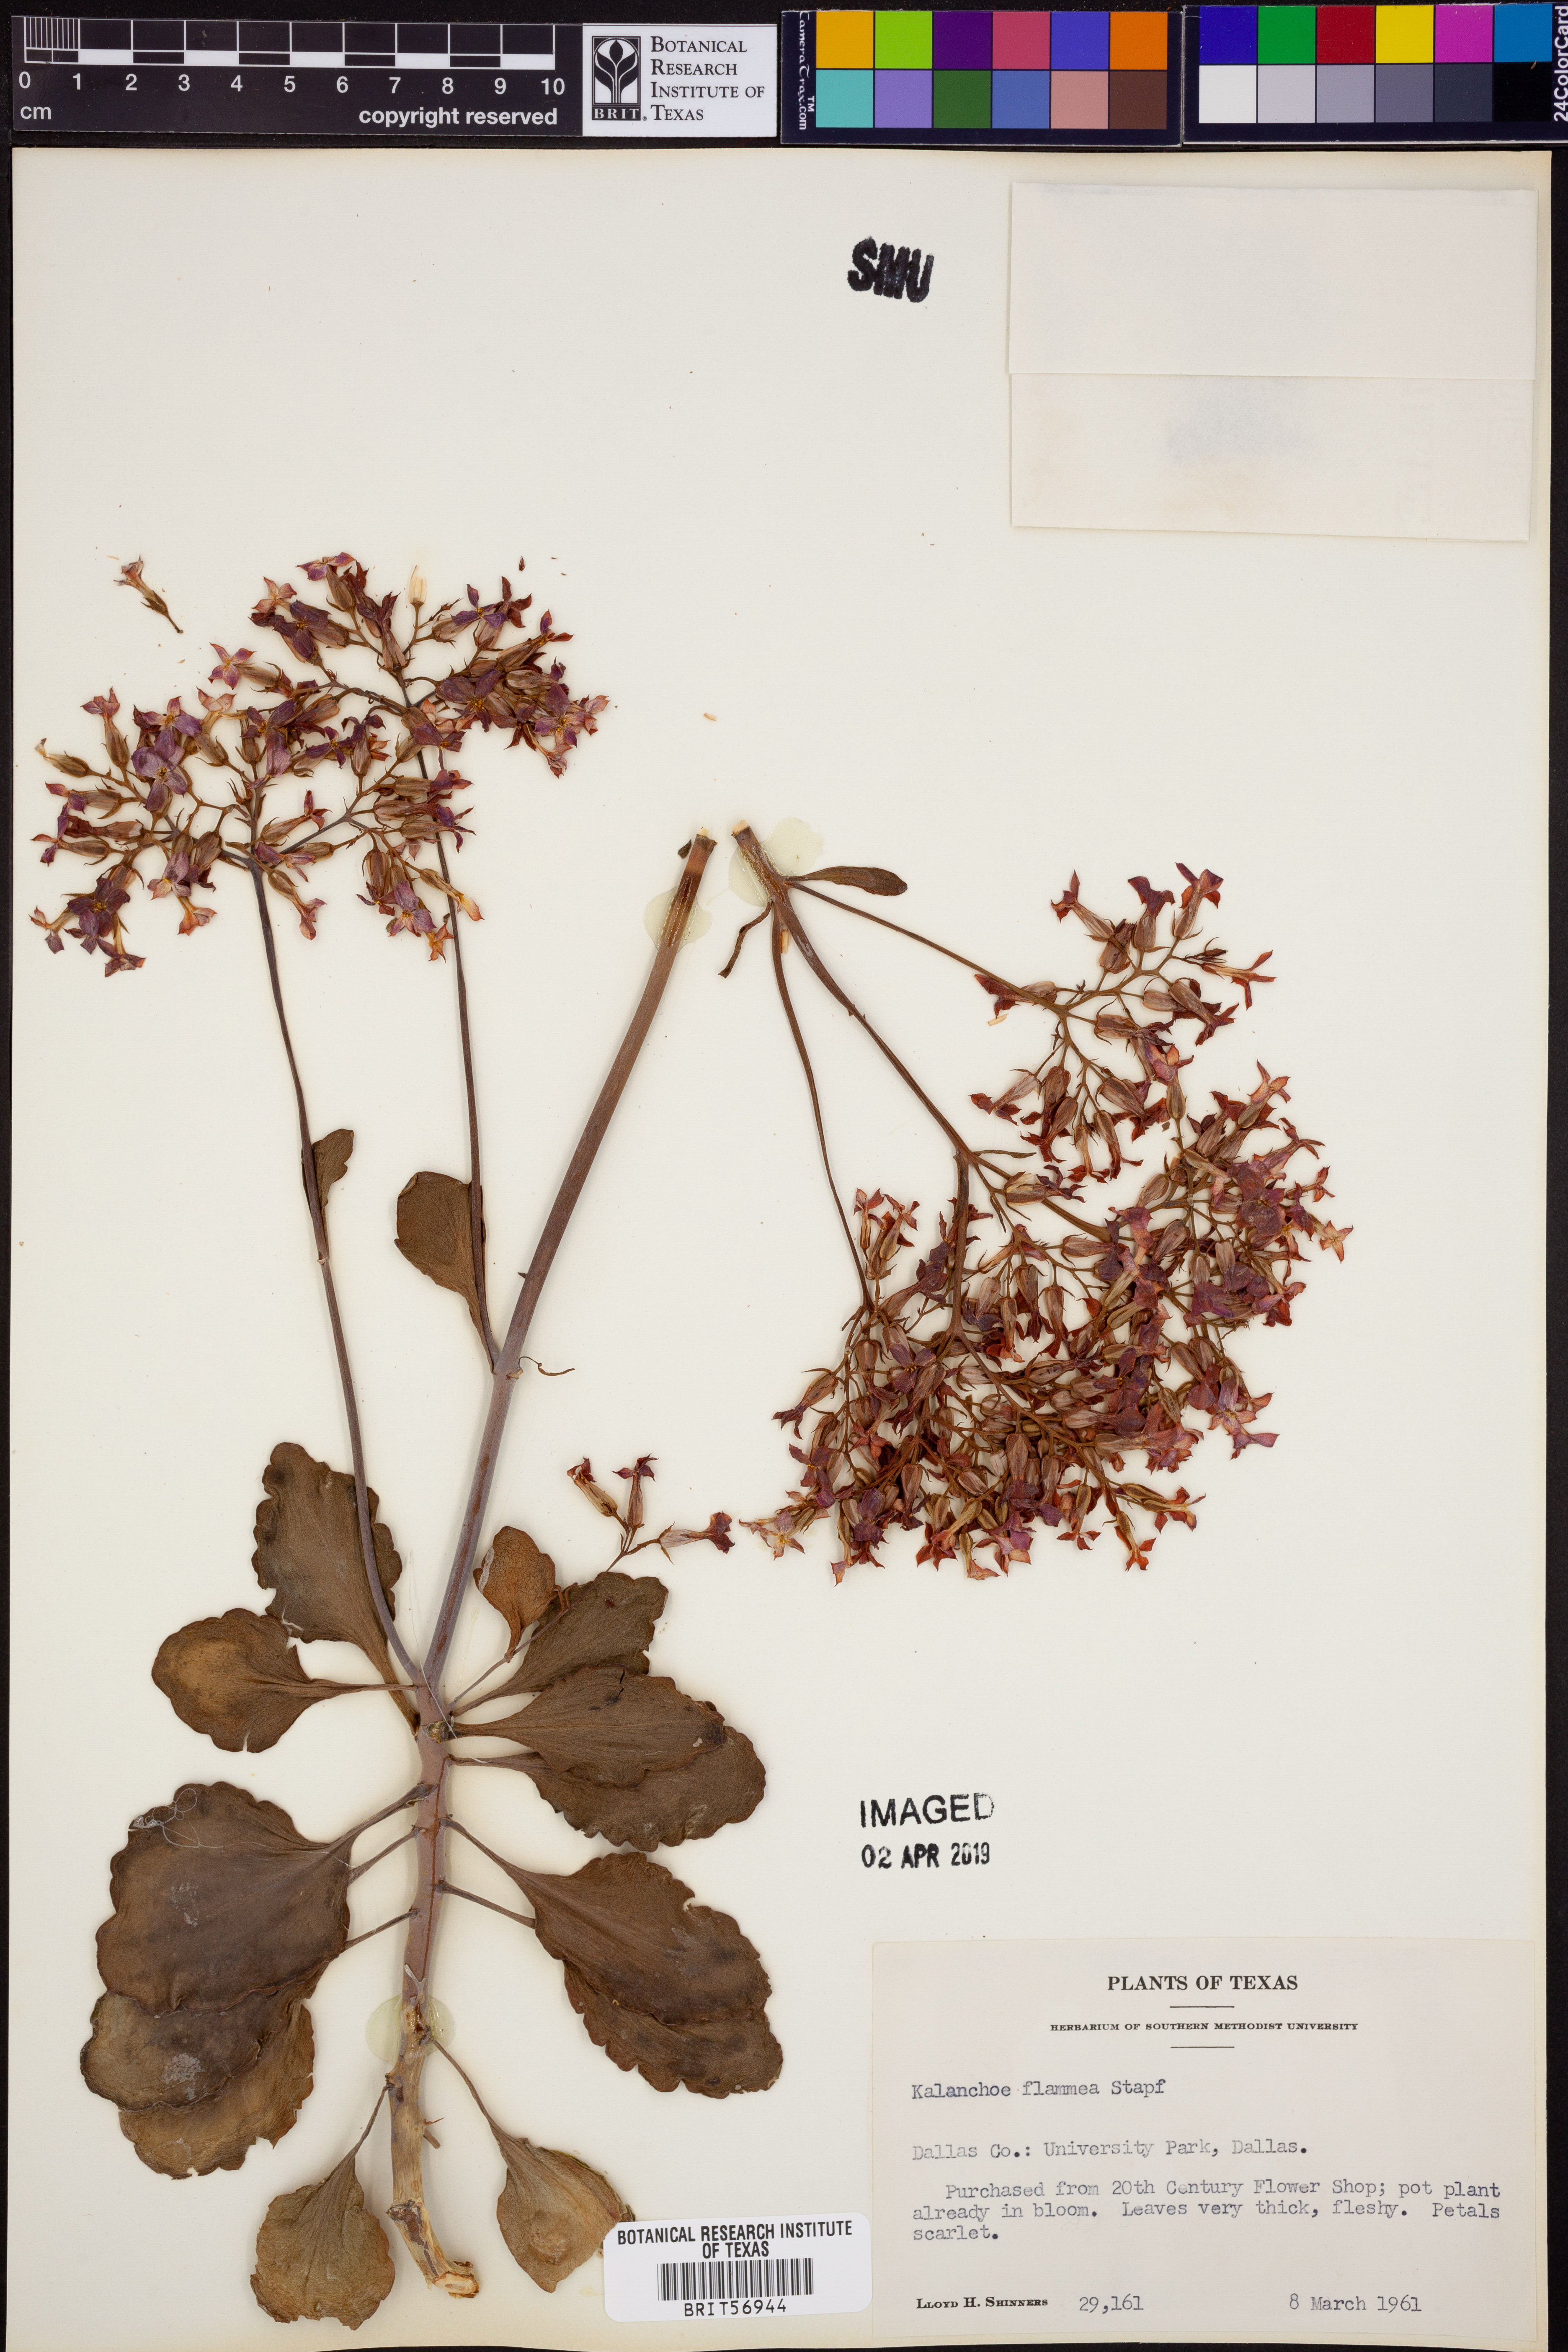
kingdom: Plantae
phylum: Tracheophyta
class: Magnoliopsida
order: Saxifragales
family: Crassulaceae
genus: Kalanchoe
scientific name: Kalanchoe glaucescens
